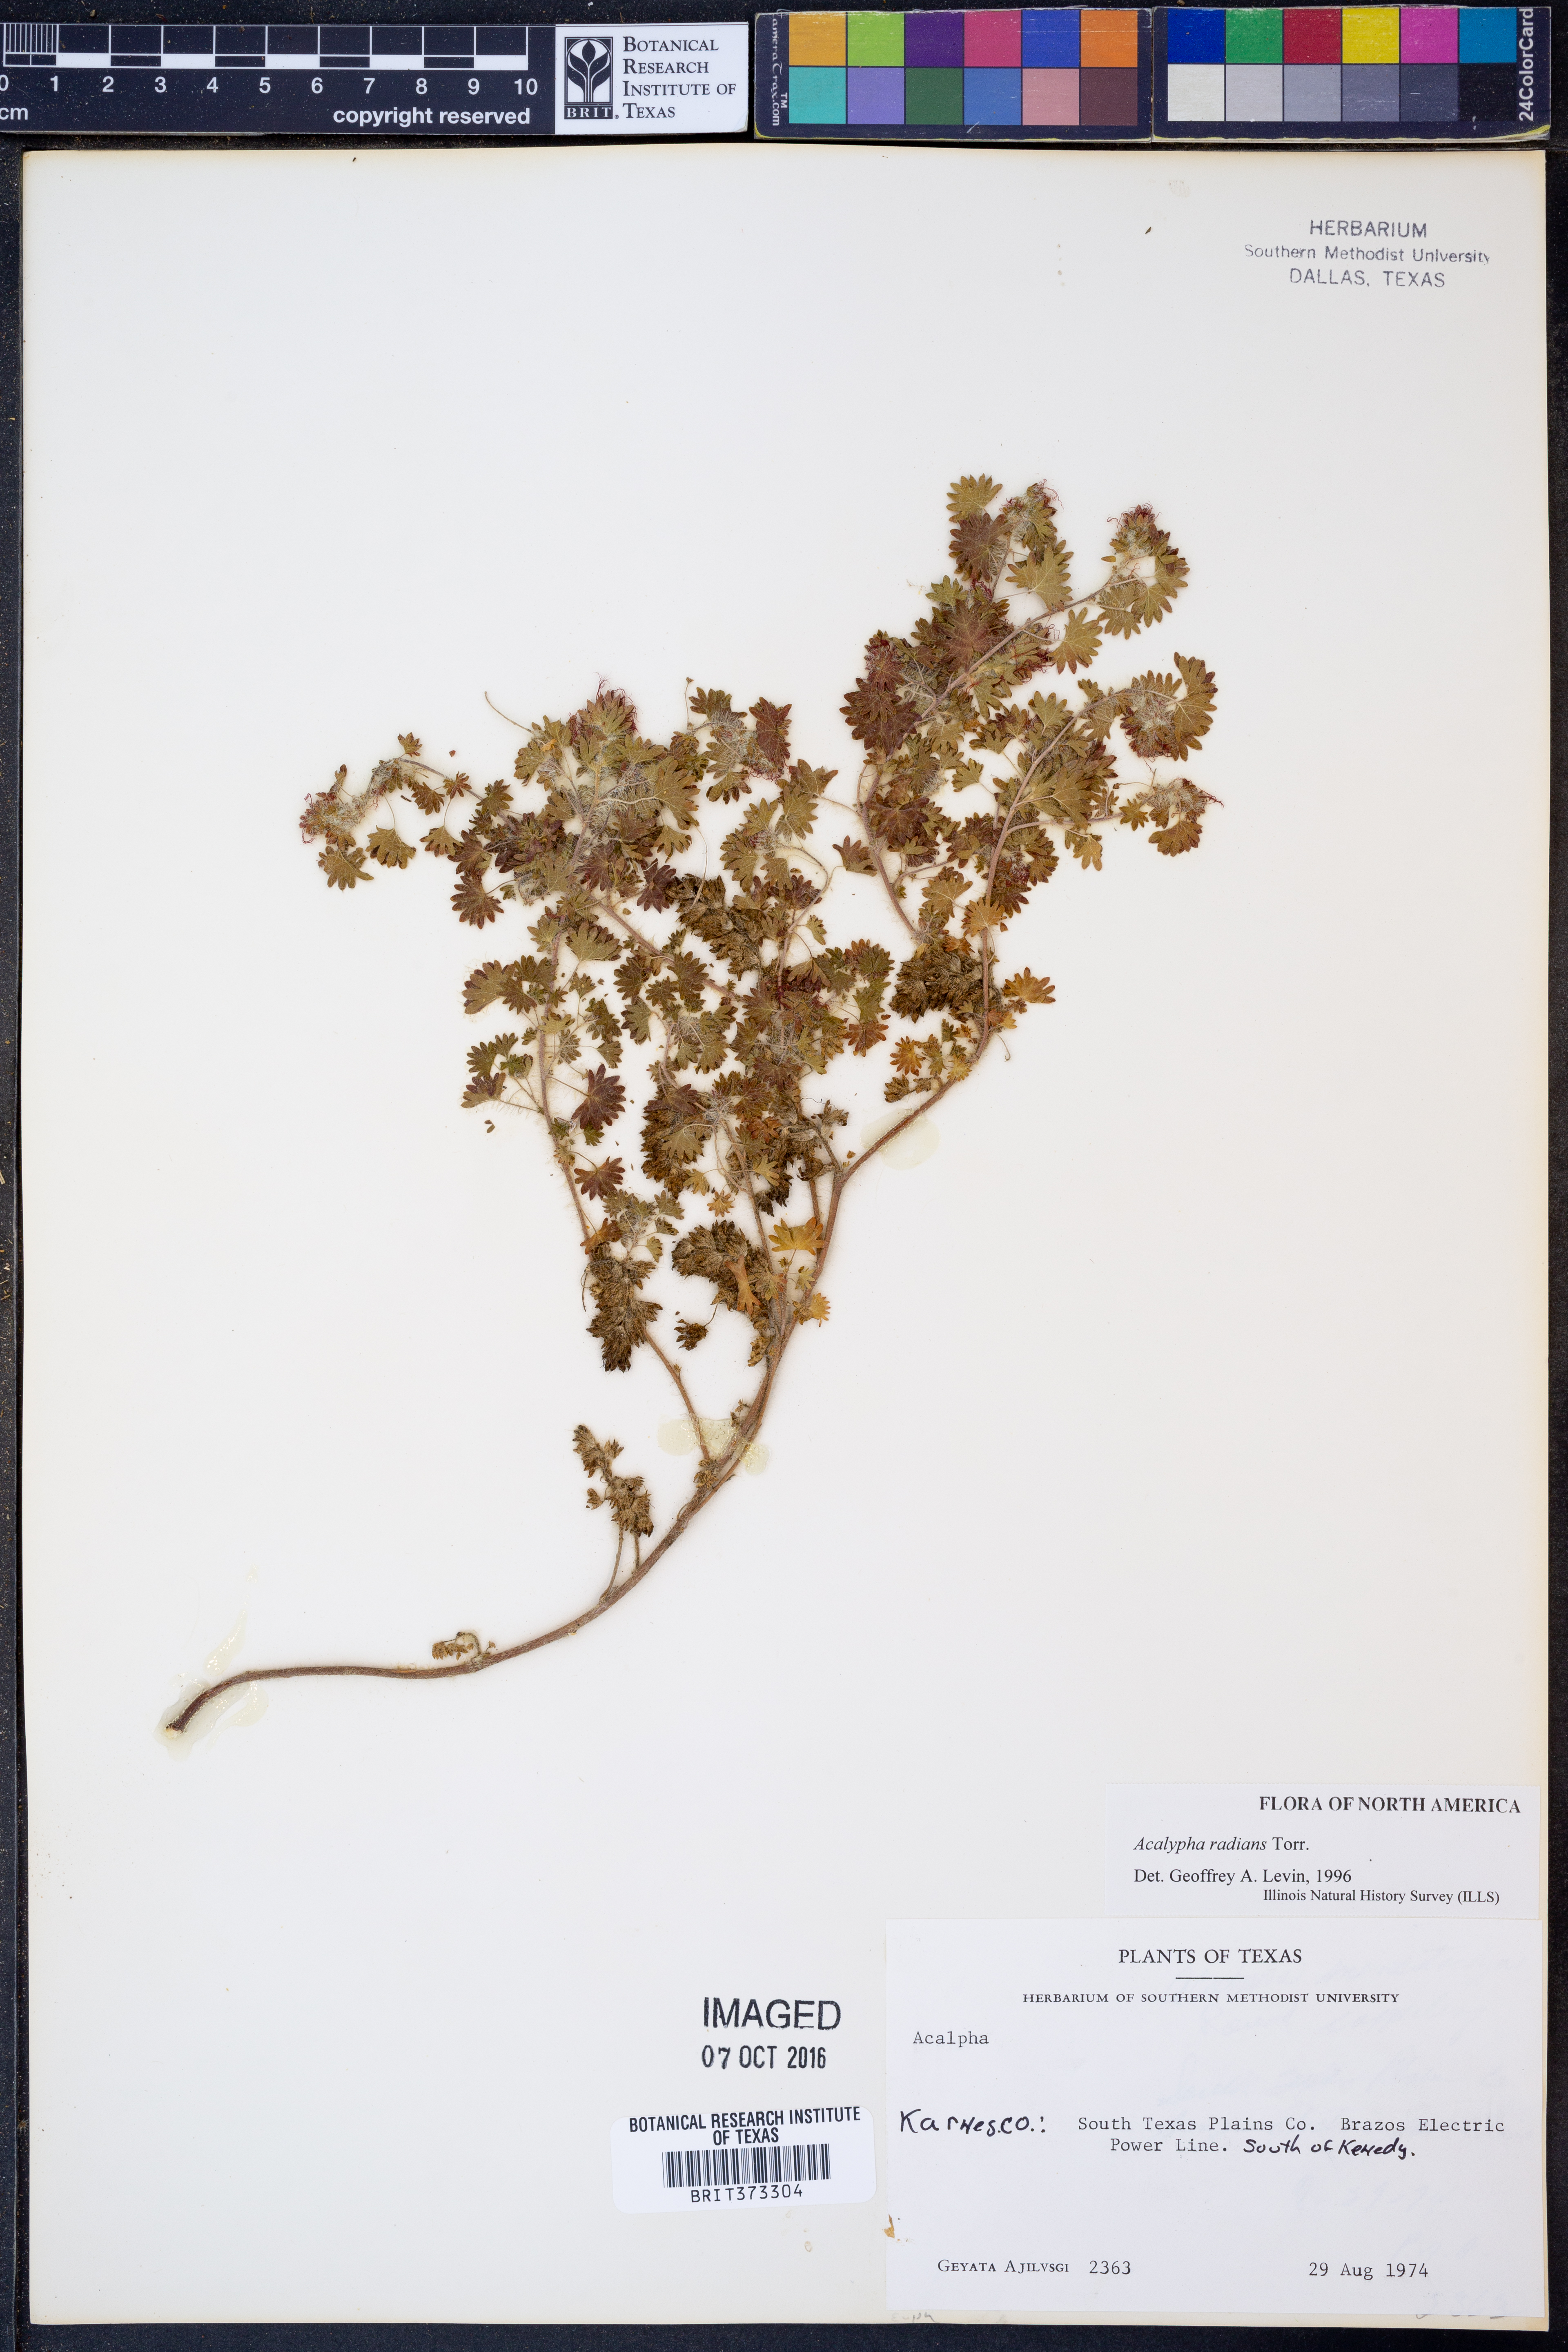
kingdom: Plantae
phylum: Tracheophyta
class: Magnoliopsida
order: Malpighiales
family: Euphorbiaceae
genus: Acalypha
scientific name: Acalypha radians
